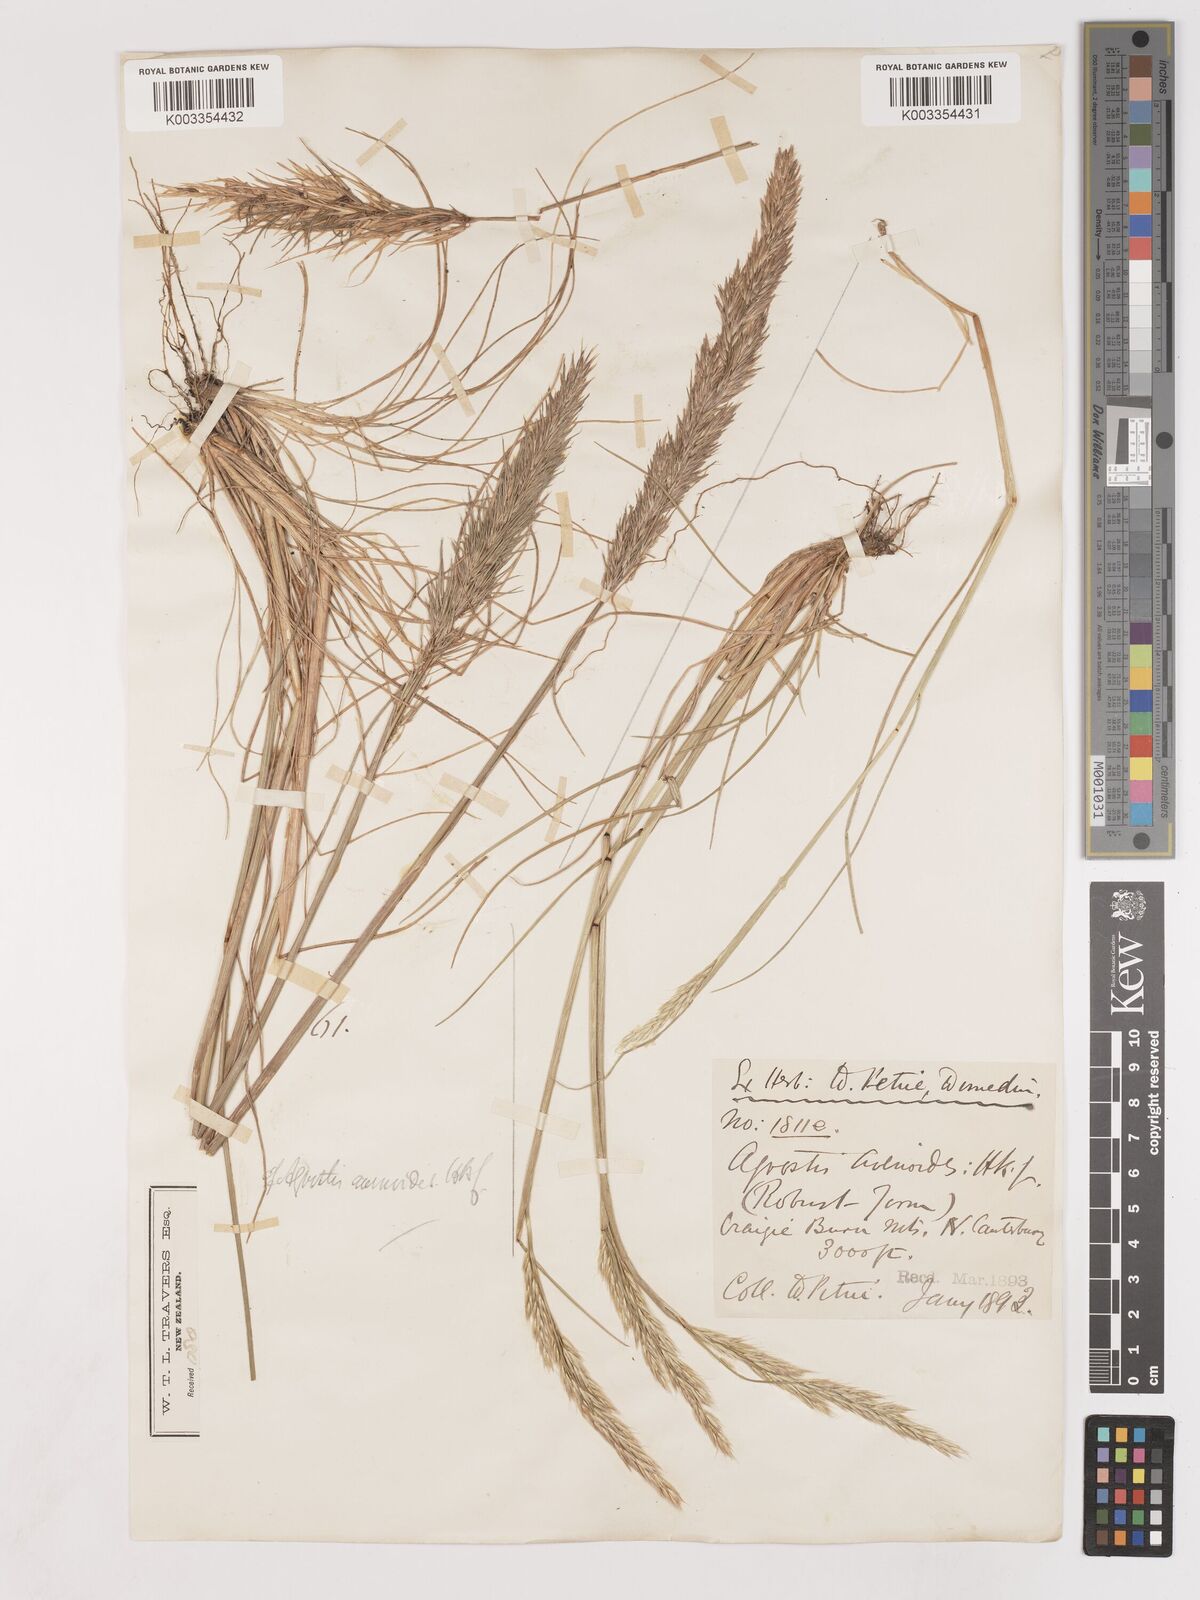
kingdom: Plantae
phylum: Tracheophyta
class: Liliopsida
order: Poales
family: Poaceae
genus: Calamagrostis
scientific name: Calamagrostis avenoides
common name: Mountain oat grass
